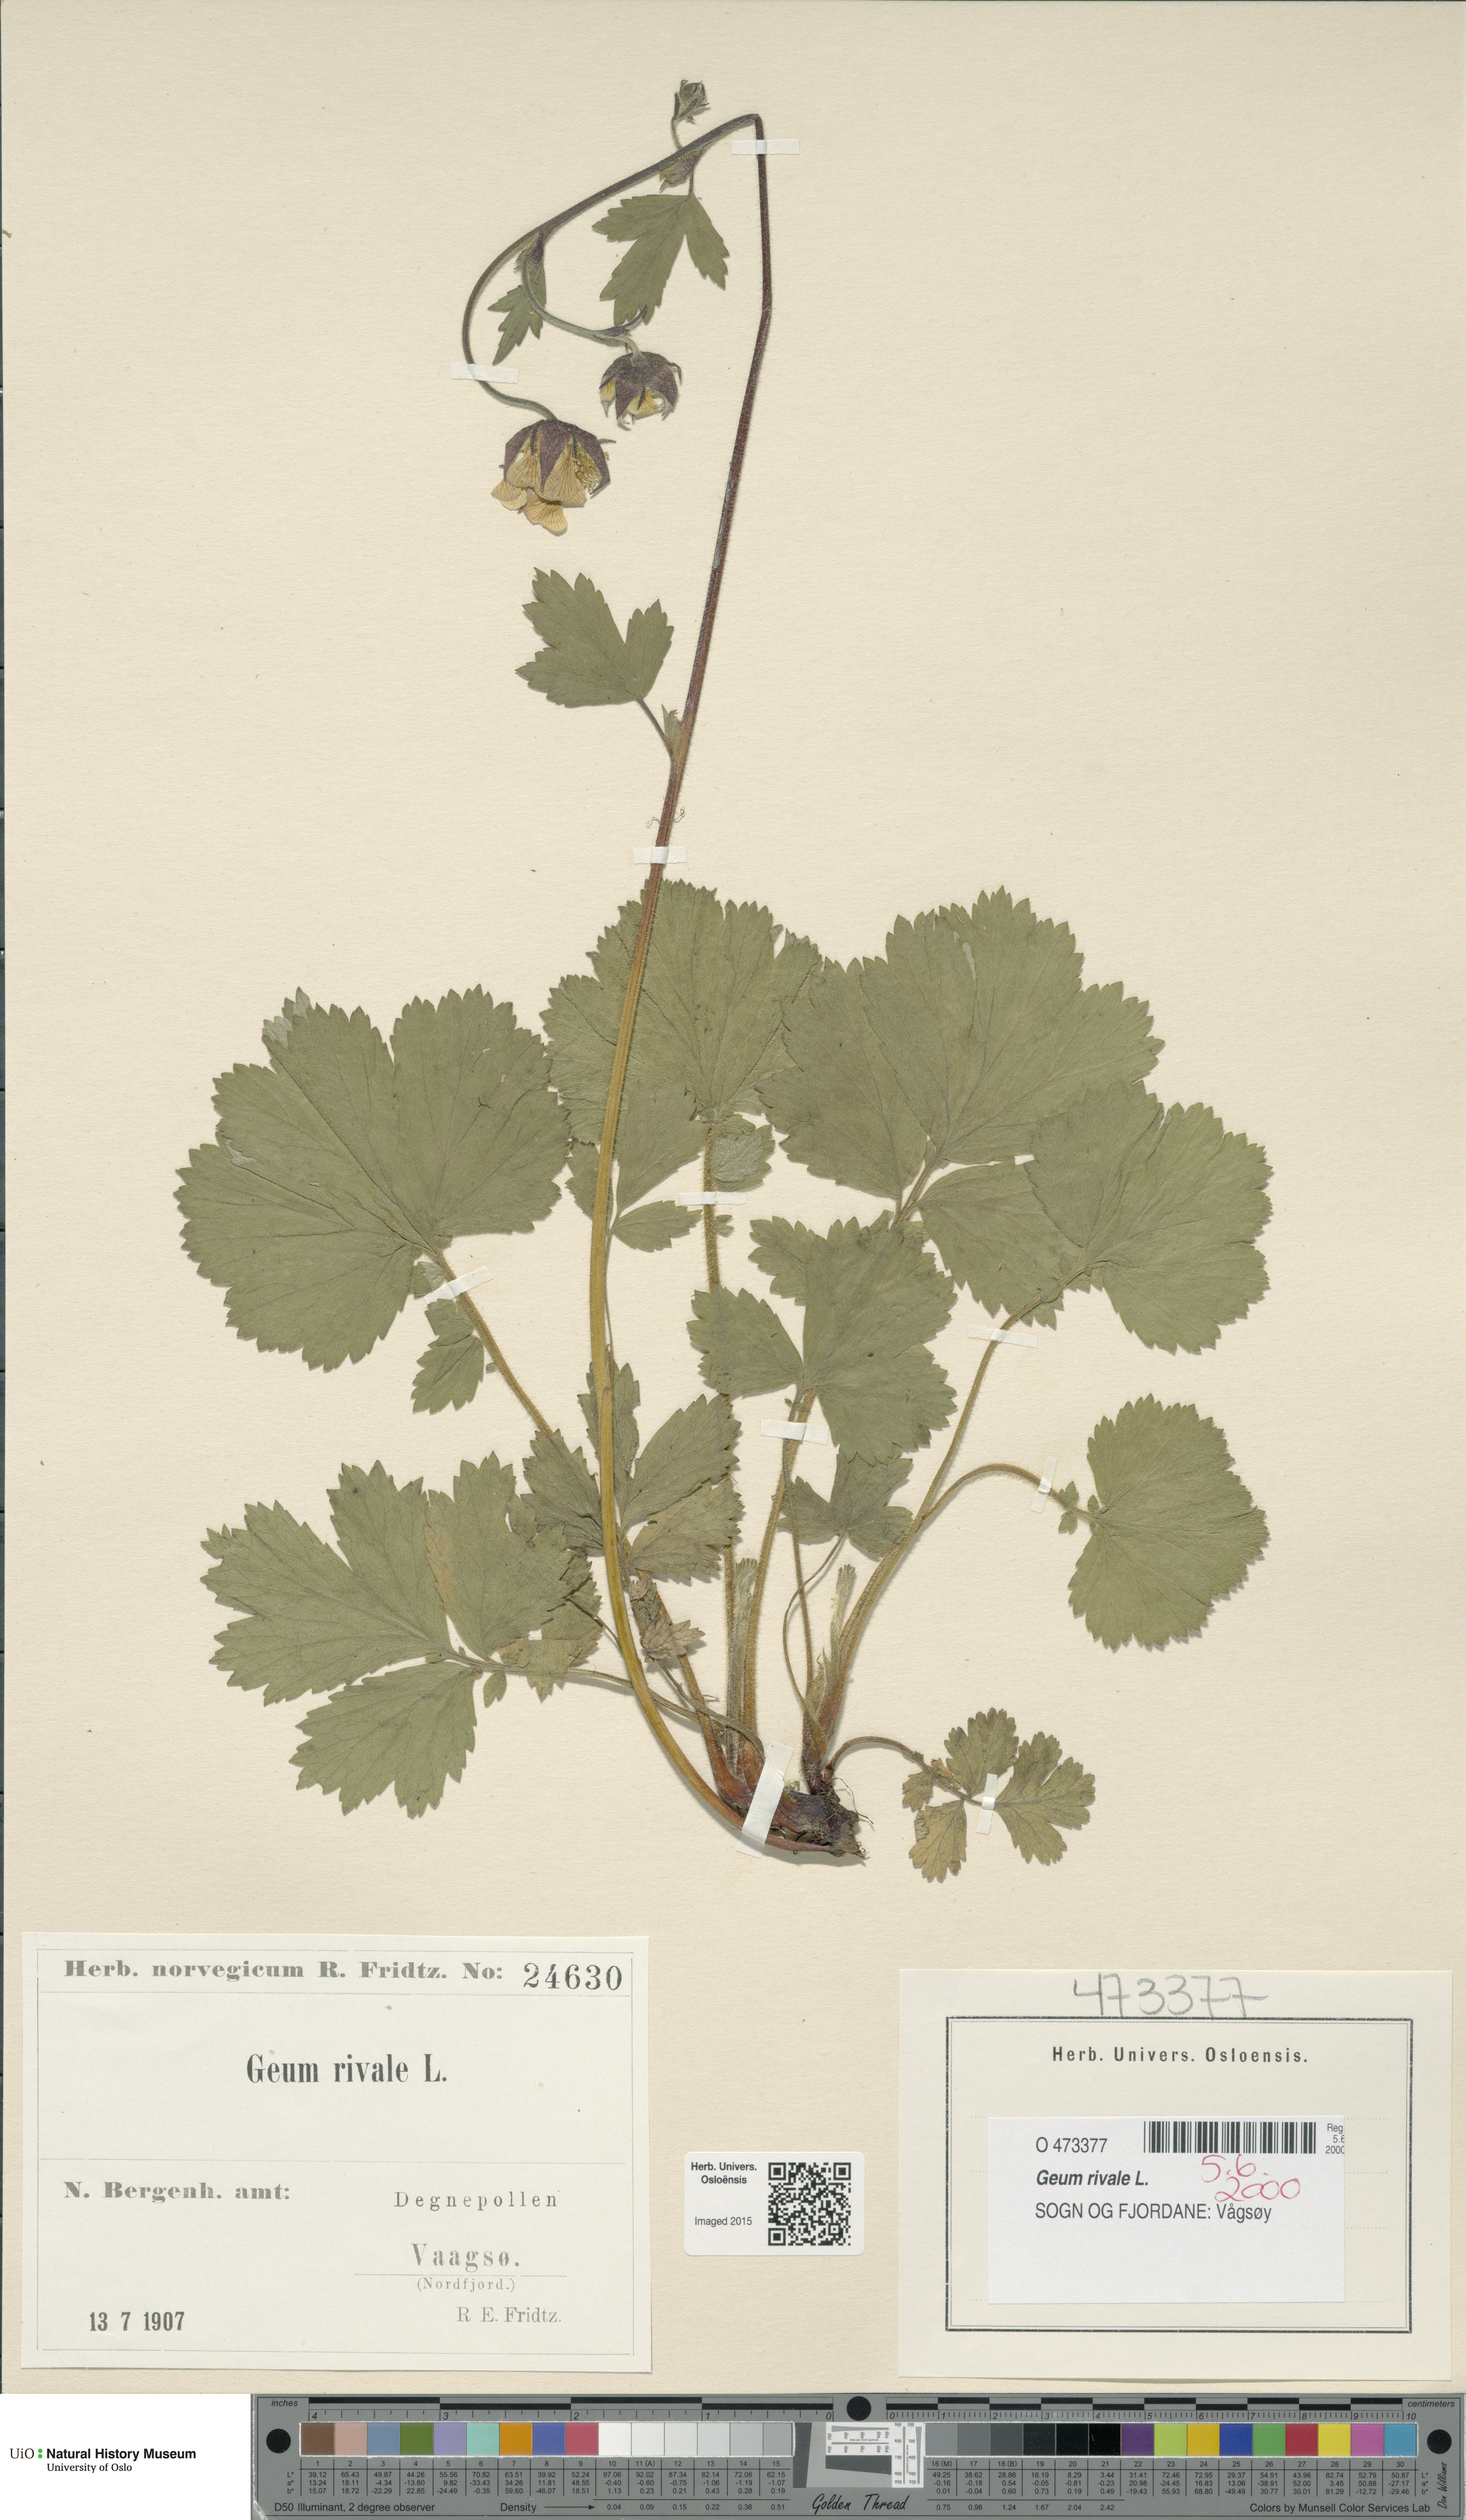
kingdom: Plantae
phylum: Tracheophyta
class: Magnoliopsida
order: Rosales
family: Rosaceae
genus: Geum
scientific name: Geum rivale
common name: Water avens
